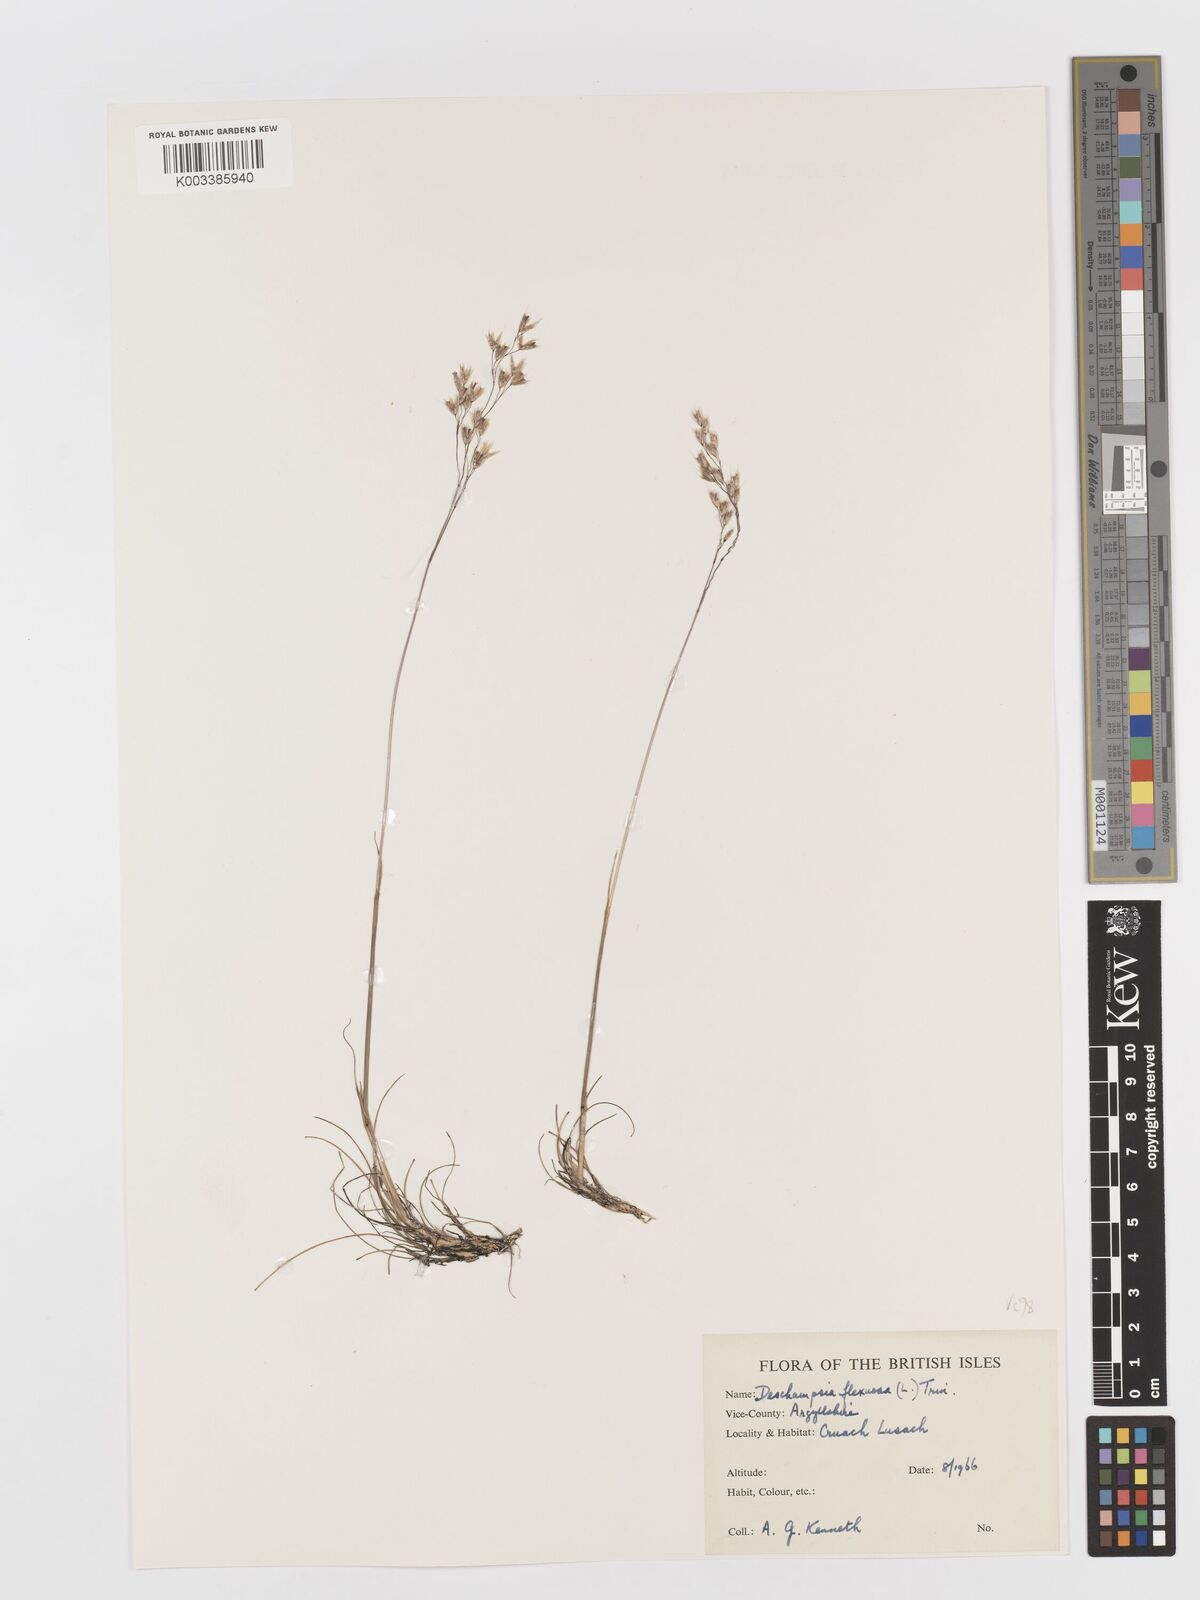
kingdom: Plantae
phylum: Tracheophyta
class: Liliopsida
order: Poales
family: Poaceae
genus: Avenella
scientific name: Avenella flexuosa
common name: Wavy hairgrass
